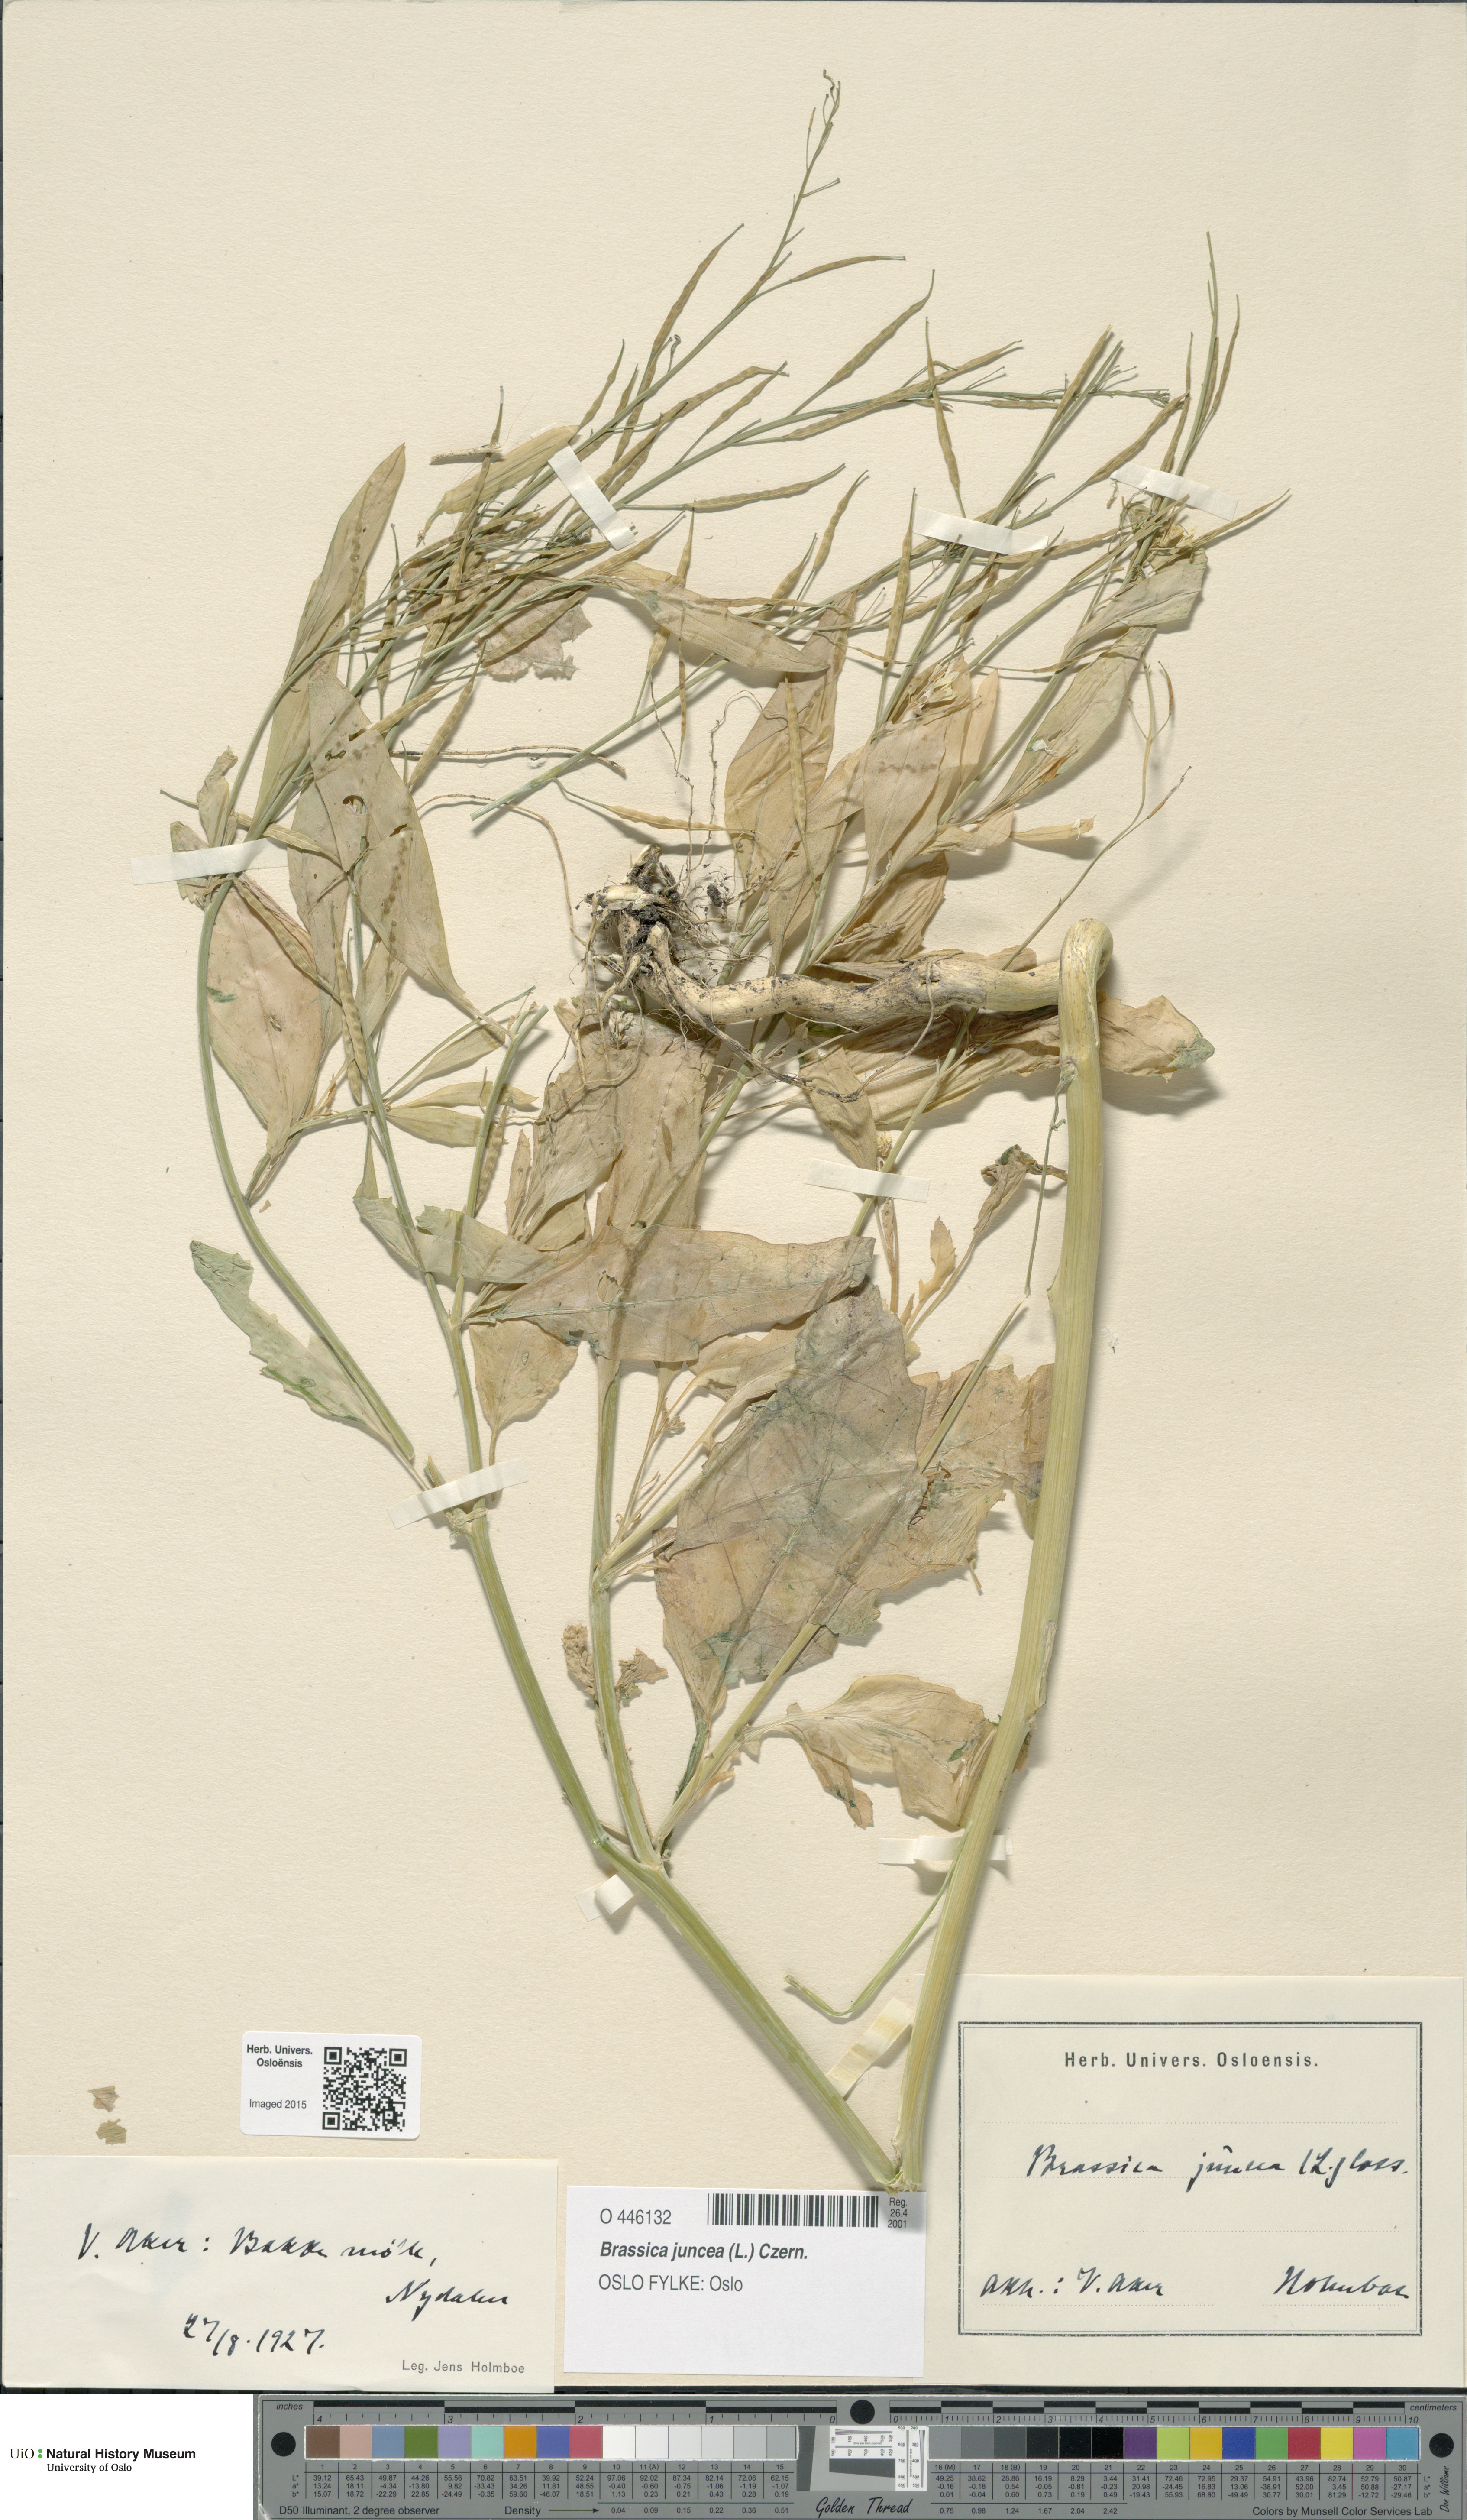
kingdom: Plantae
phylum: Tracheophyta
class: Magnoliopsida
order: Brassicales
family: Brassicaceae
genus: Brassica
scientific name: Brassica juncea
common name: Brown mustard
